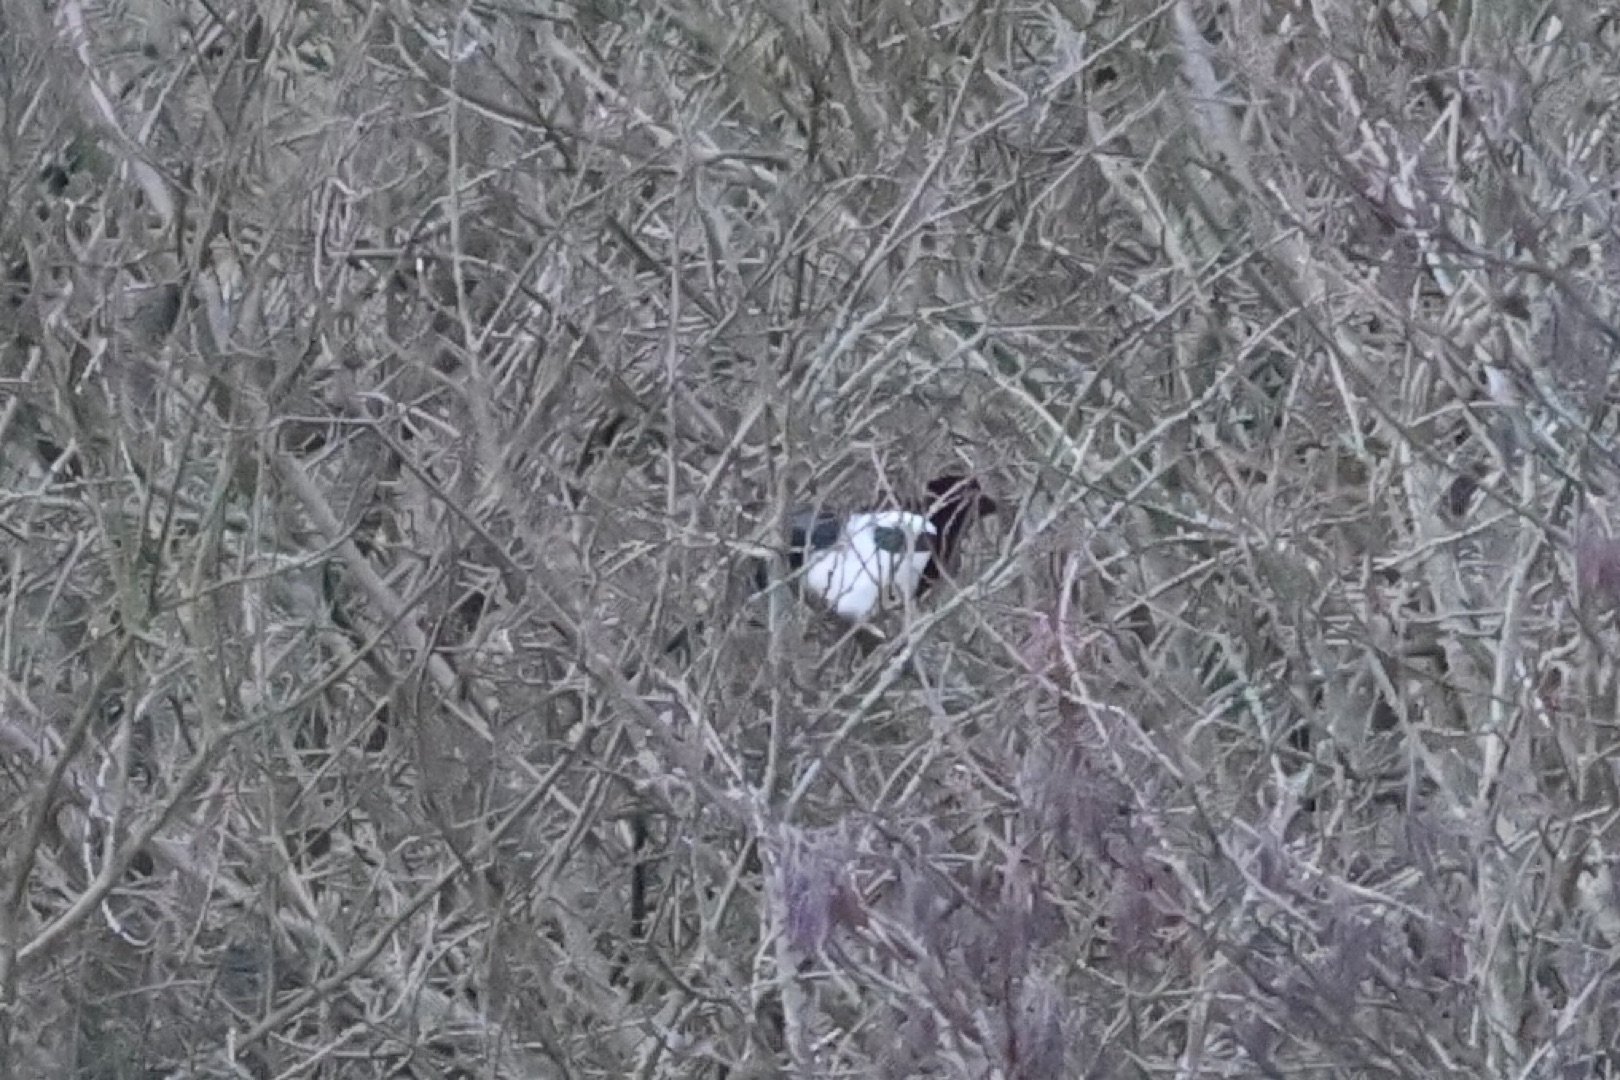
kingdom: Animalia
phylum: Chordata
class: Aves
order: Passeriformes
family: Corvidae
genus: Pica
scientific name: Pica pica
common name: Husskade
